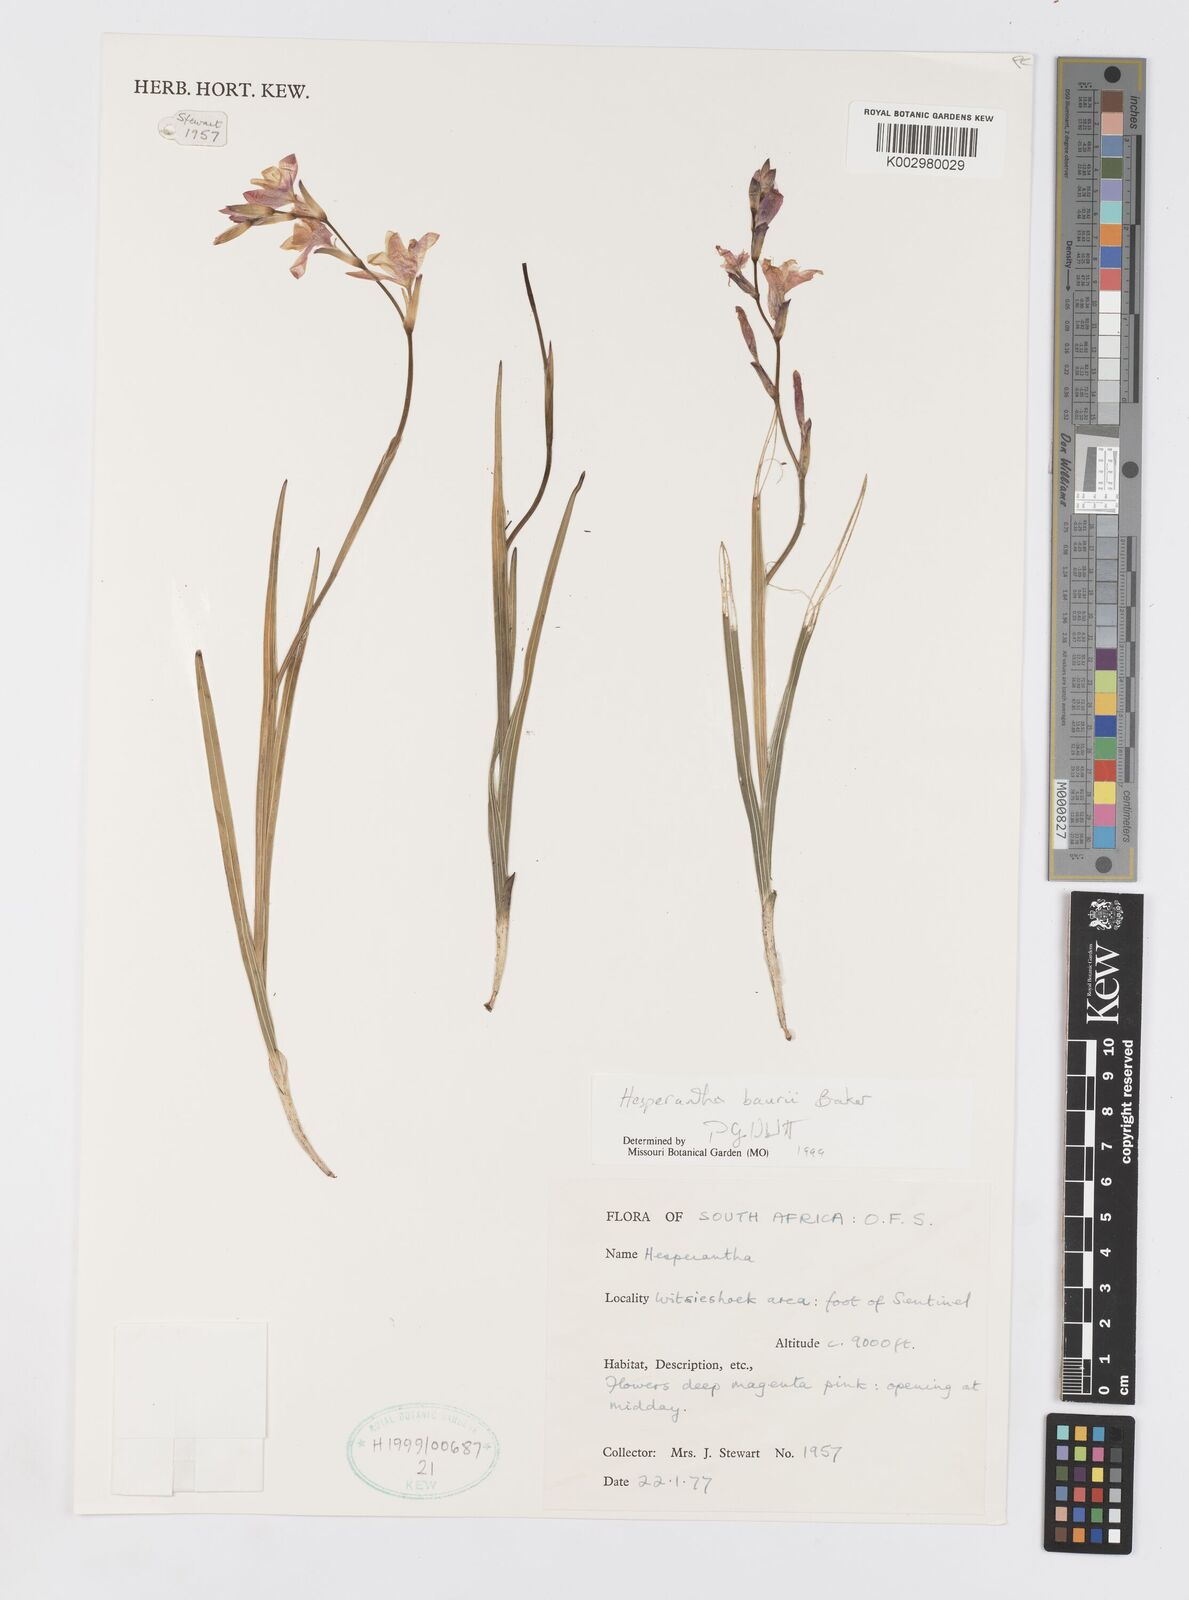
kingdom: Plantae
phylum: Tracheophyta
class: Liliopsida
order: Asparagales
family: Iridaceae
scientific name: Iridaceae
